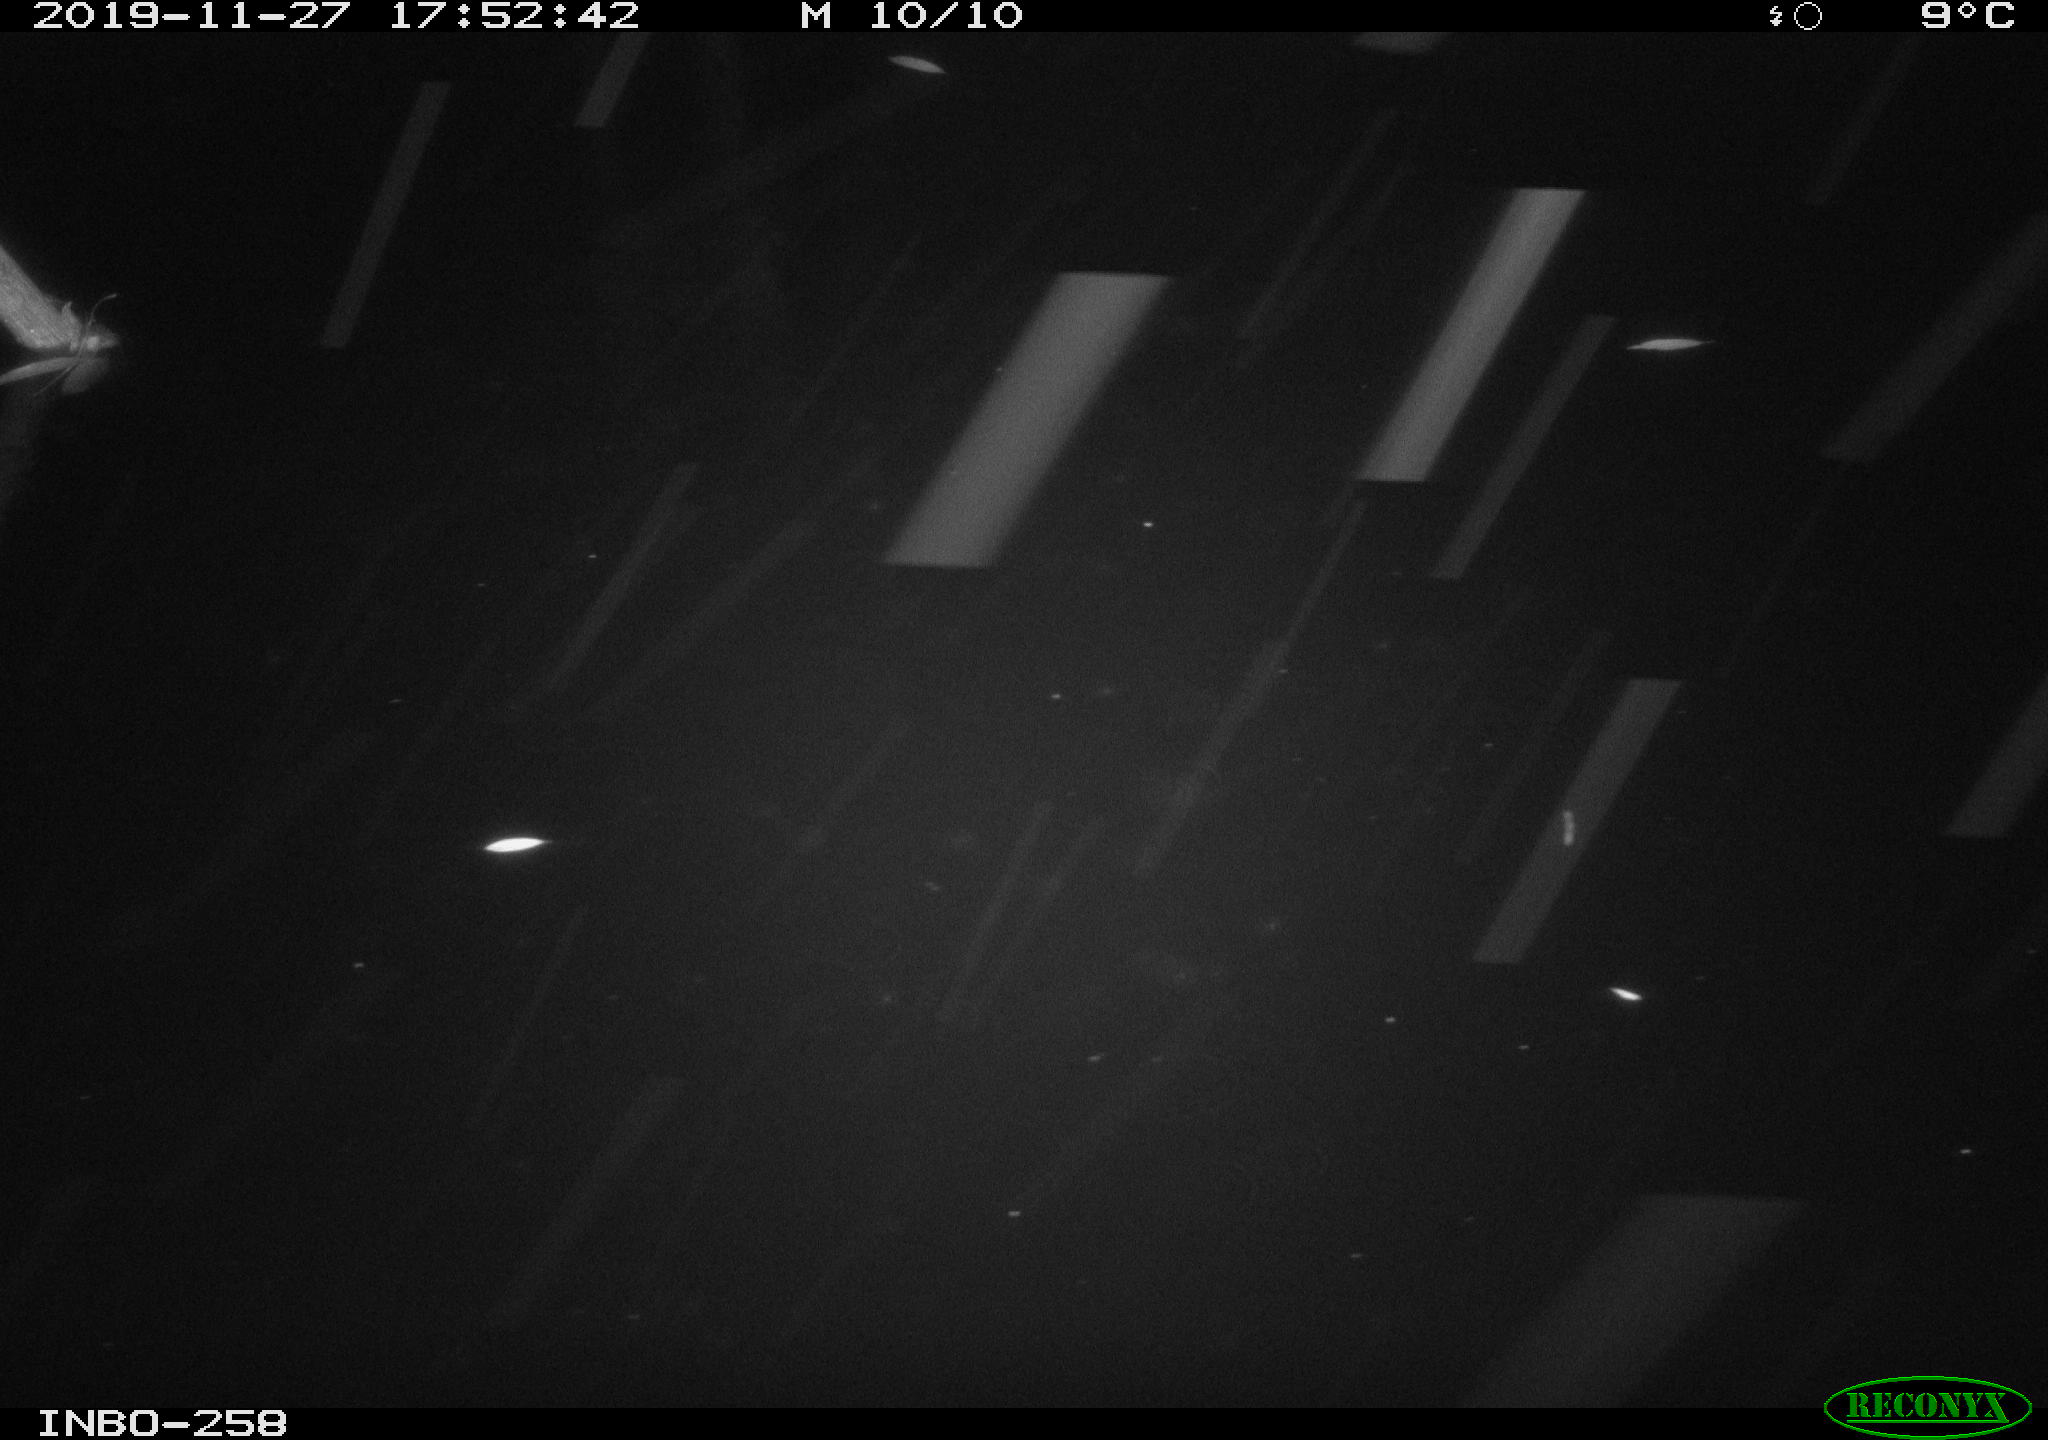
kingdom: Animalia
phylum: Chordata
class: Aves
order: Anseriformes
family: Anatidae
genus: Anas
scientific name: Anas platyrhynchos
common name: Mallard
